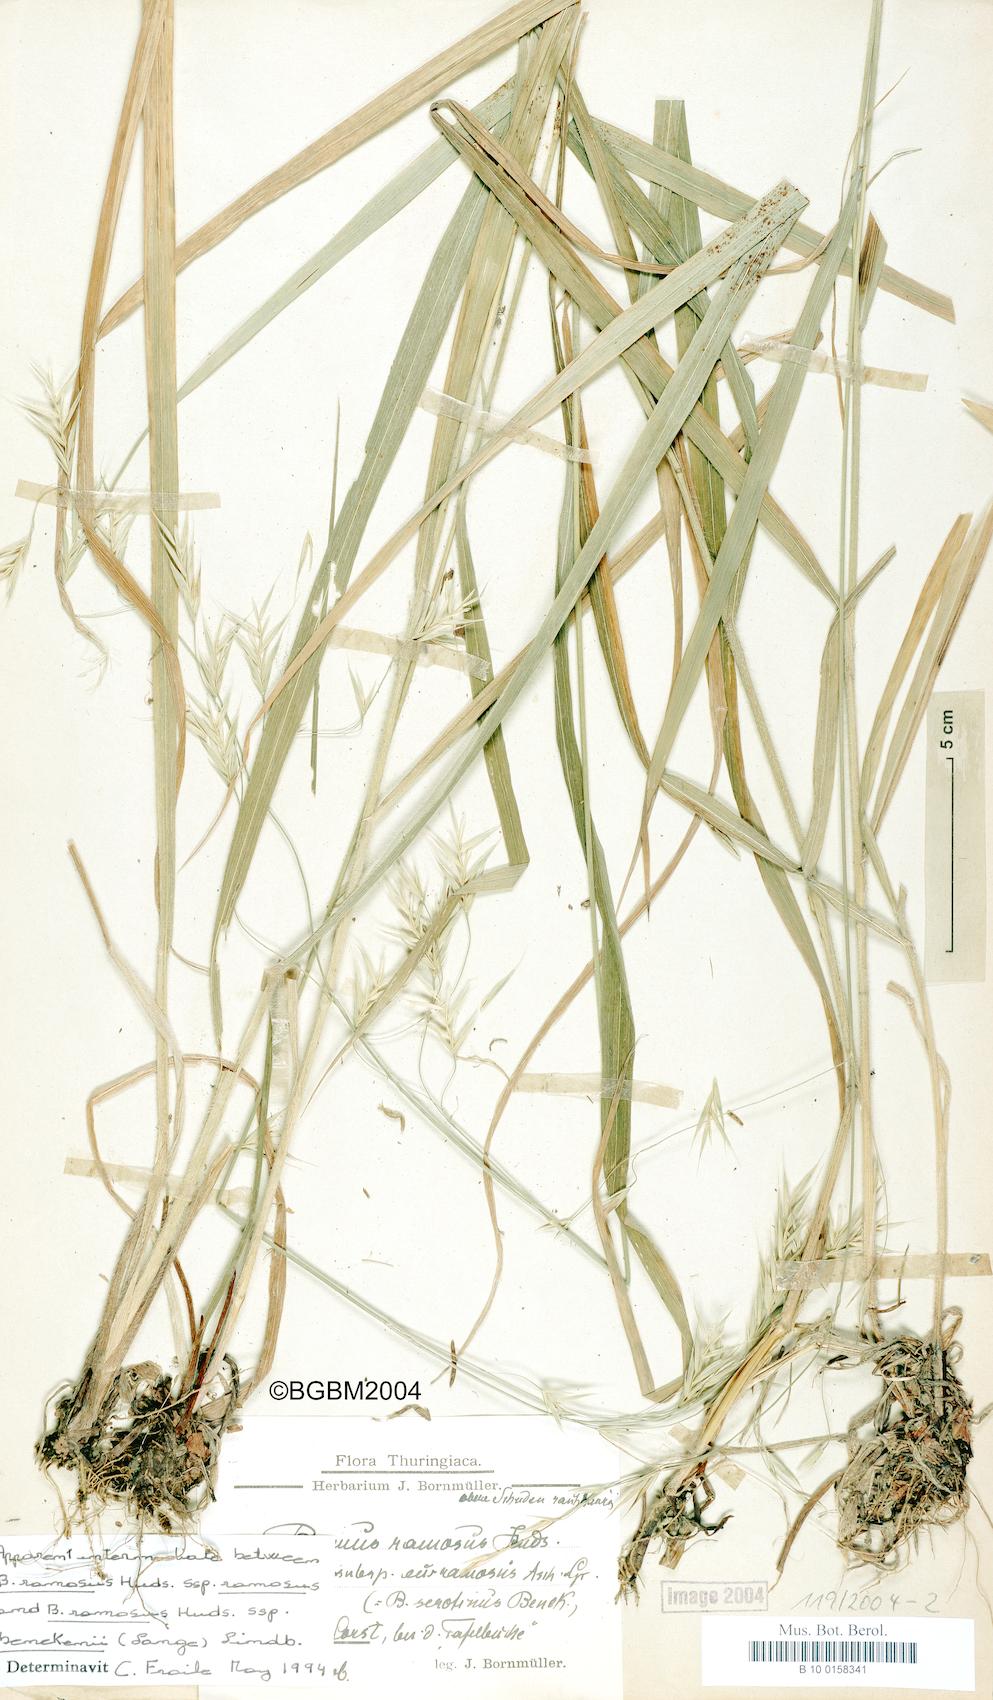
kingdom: Plantae
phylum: Tracheophyta
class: Liliopsida
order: Poales
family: Poaceae
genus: Bromus
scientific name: Bromus ramosus
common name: Hairy brome
